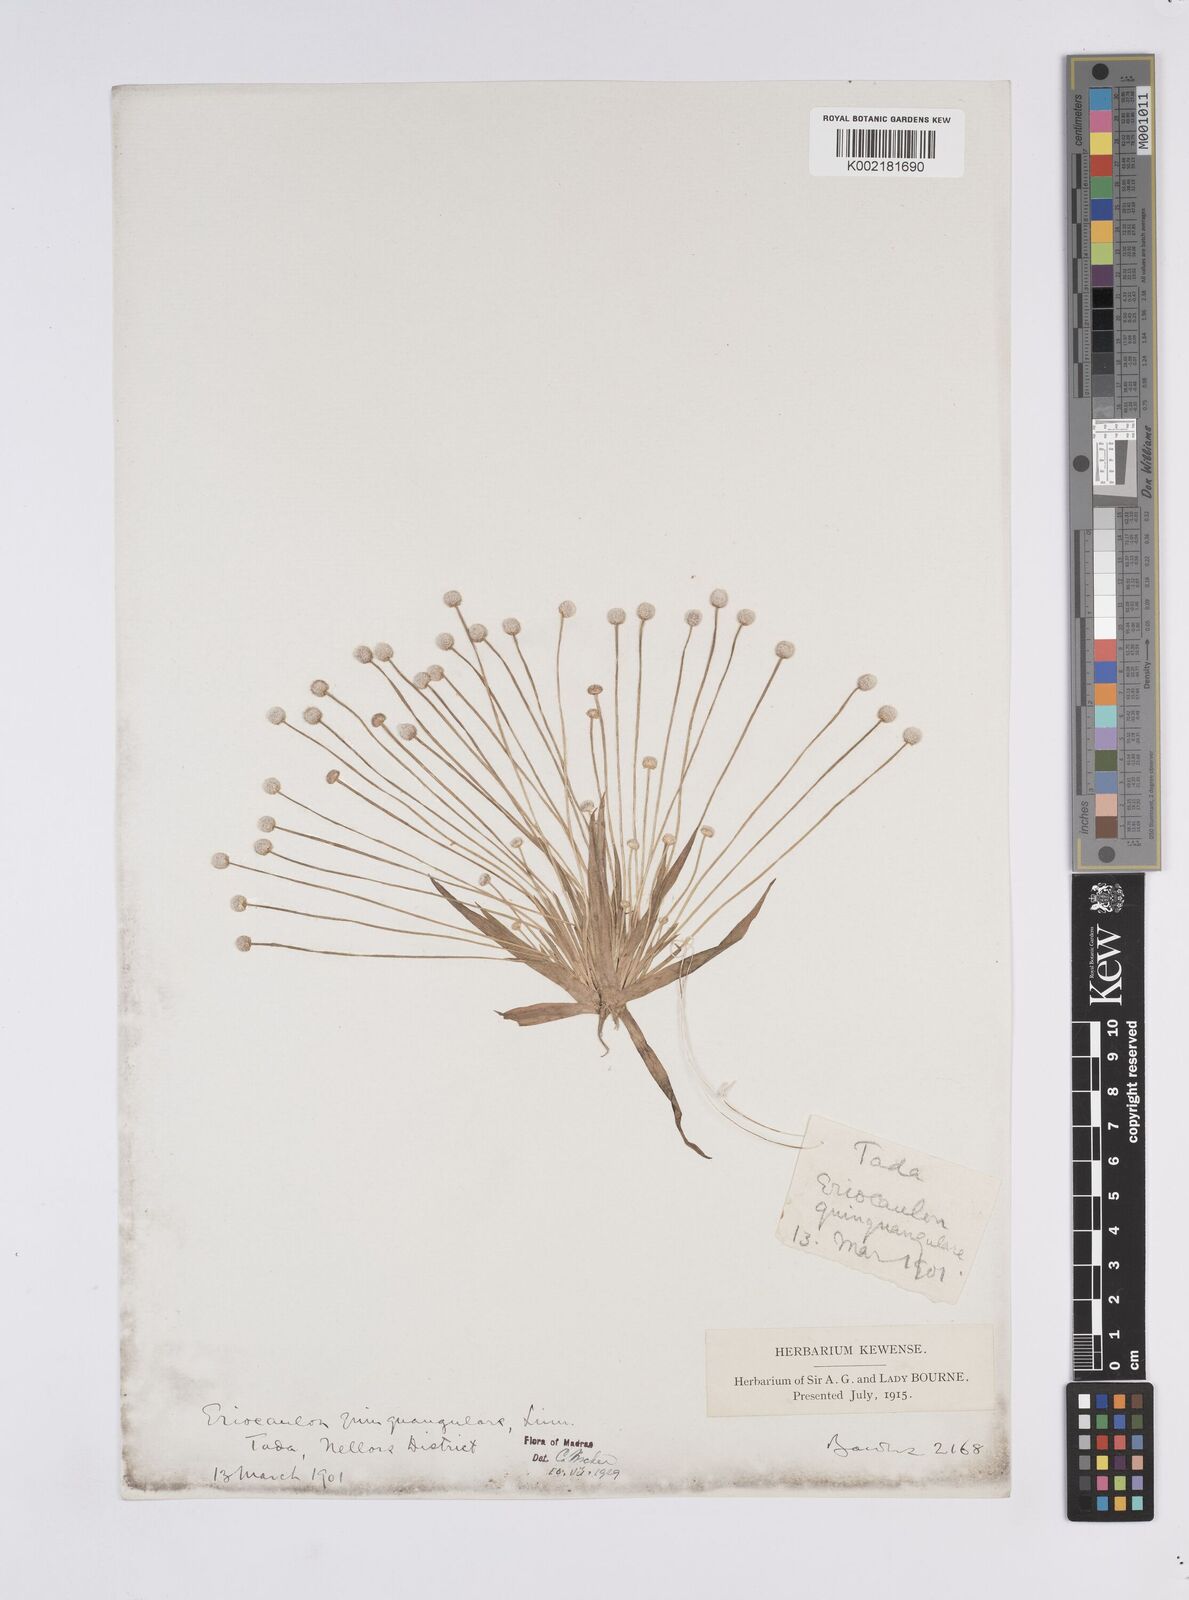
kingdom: Plantae
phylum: Tracheophyta
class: Liliopsida
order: Poales
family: Eriocaulaceae
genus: Eriocaulon
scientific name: Eriocaulon quinquangulare
